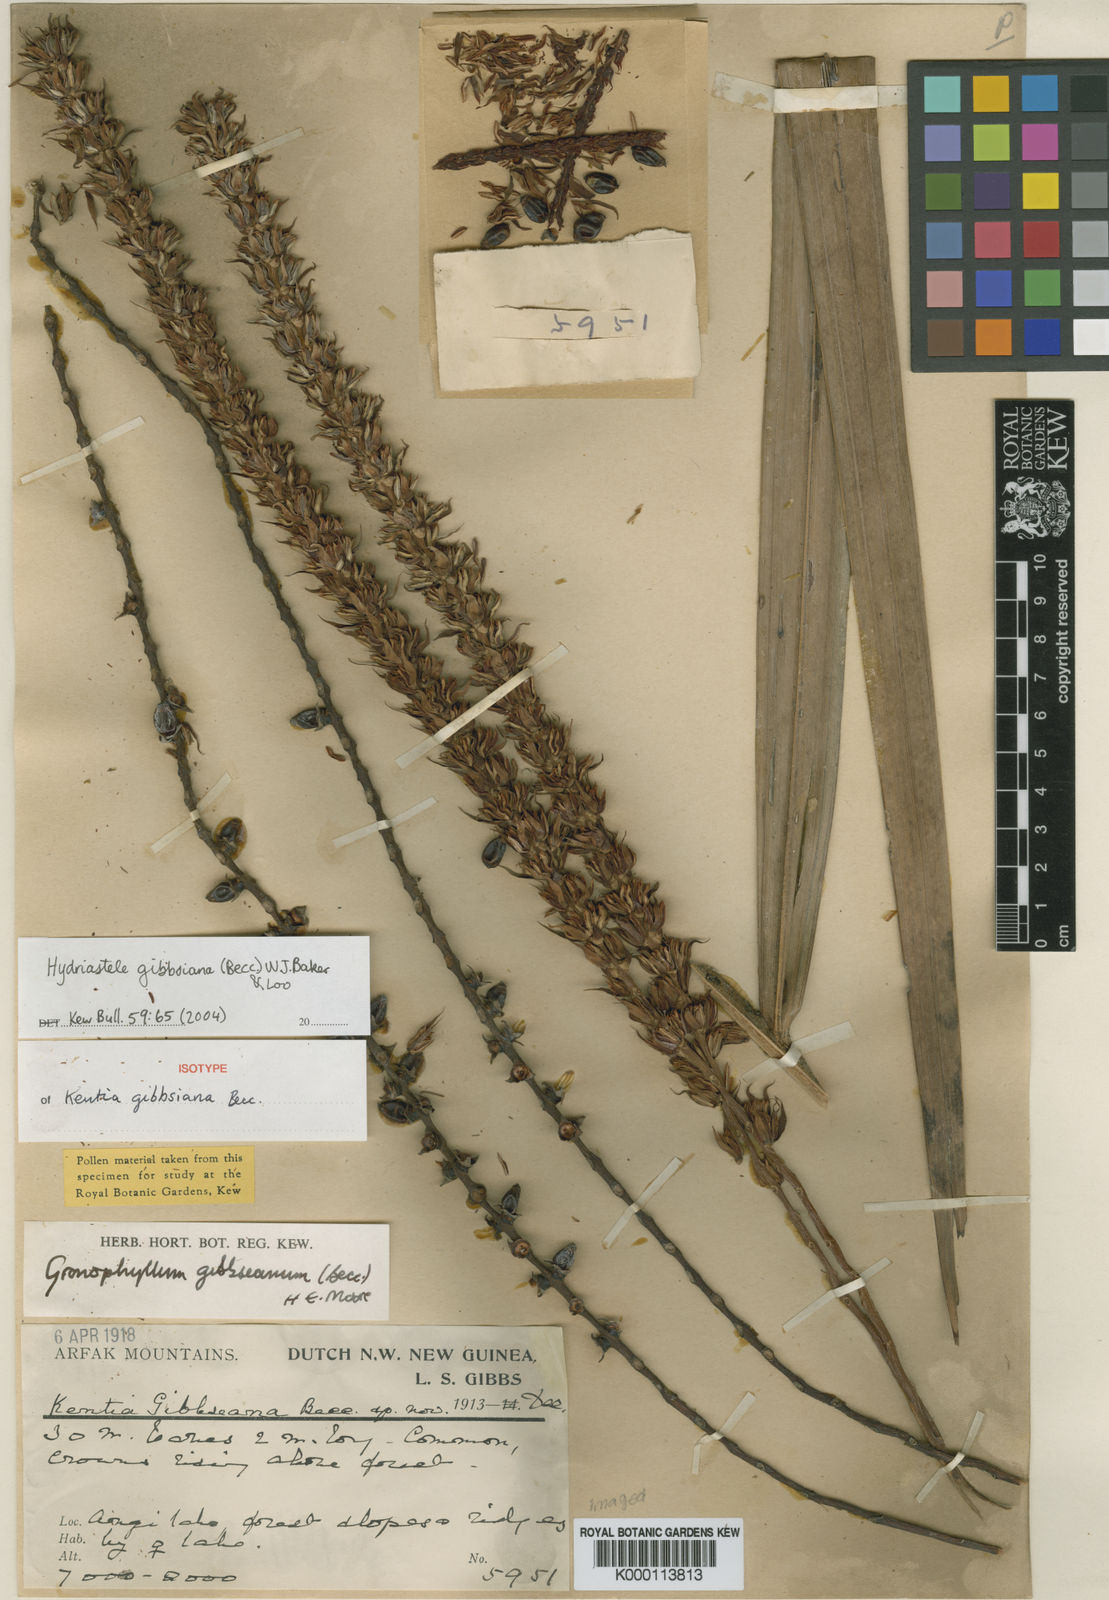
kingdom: Plantae
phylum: Tracheophyta
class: Liliopsida
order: Arecales
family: Arecaceae
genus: Hydriastele
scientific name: Hydriastele gibbsiana
